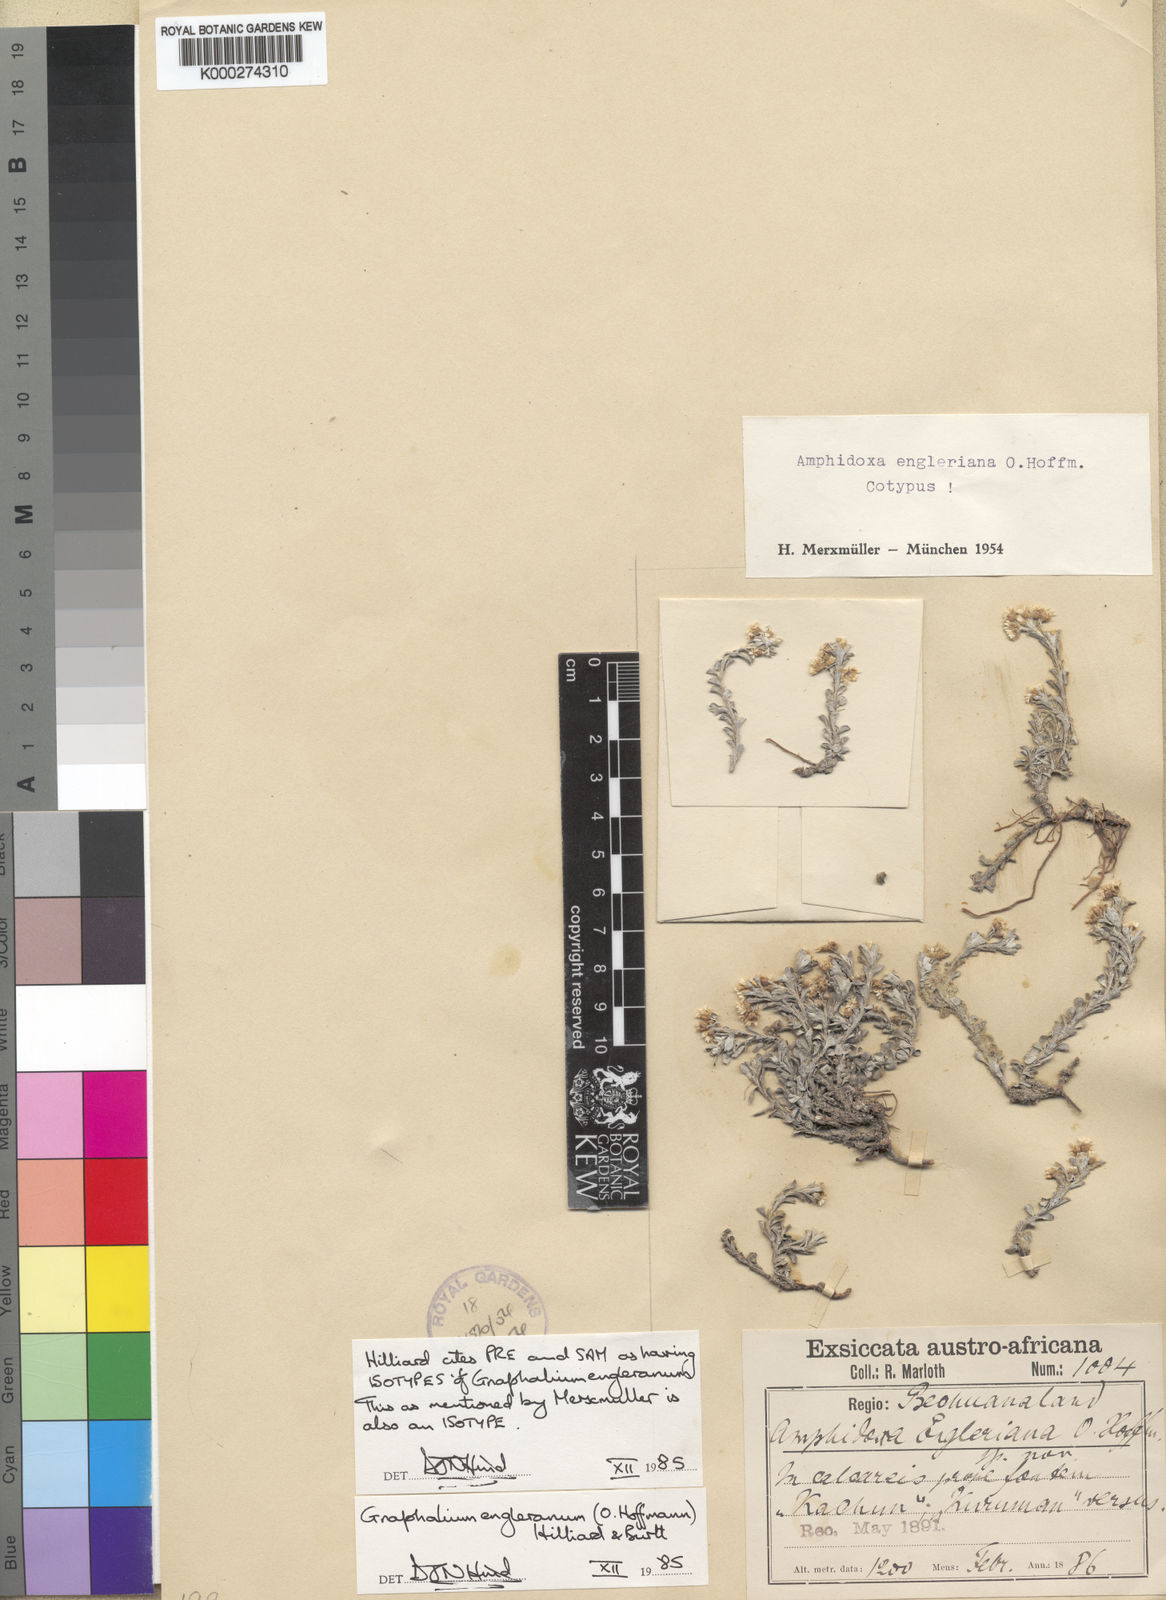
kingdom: Plantae
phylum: Tracheophyta
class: Magnoliopsida
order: Asterales
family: Asteraceae
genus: Gnaphalium
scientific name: Gnaphalium
